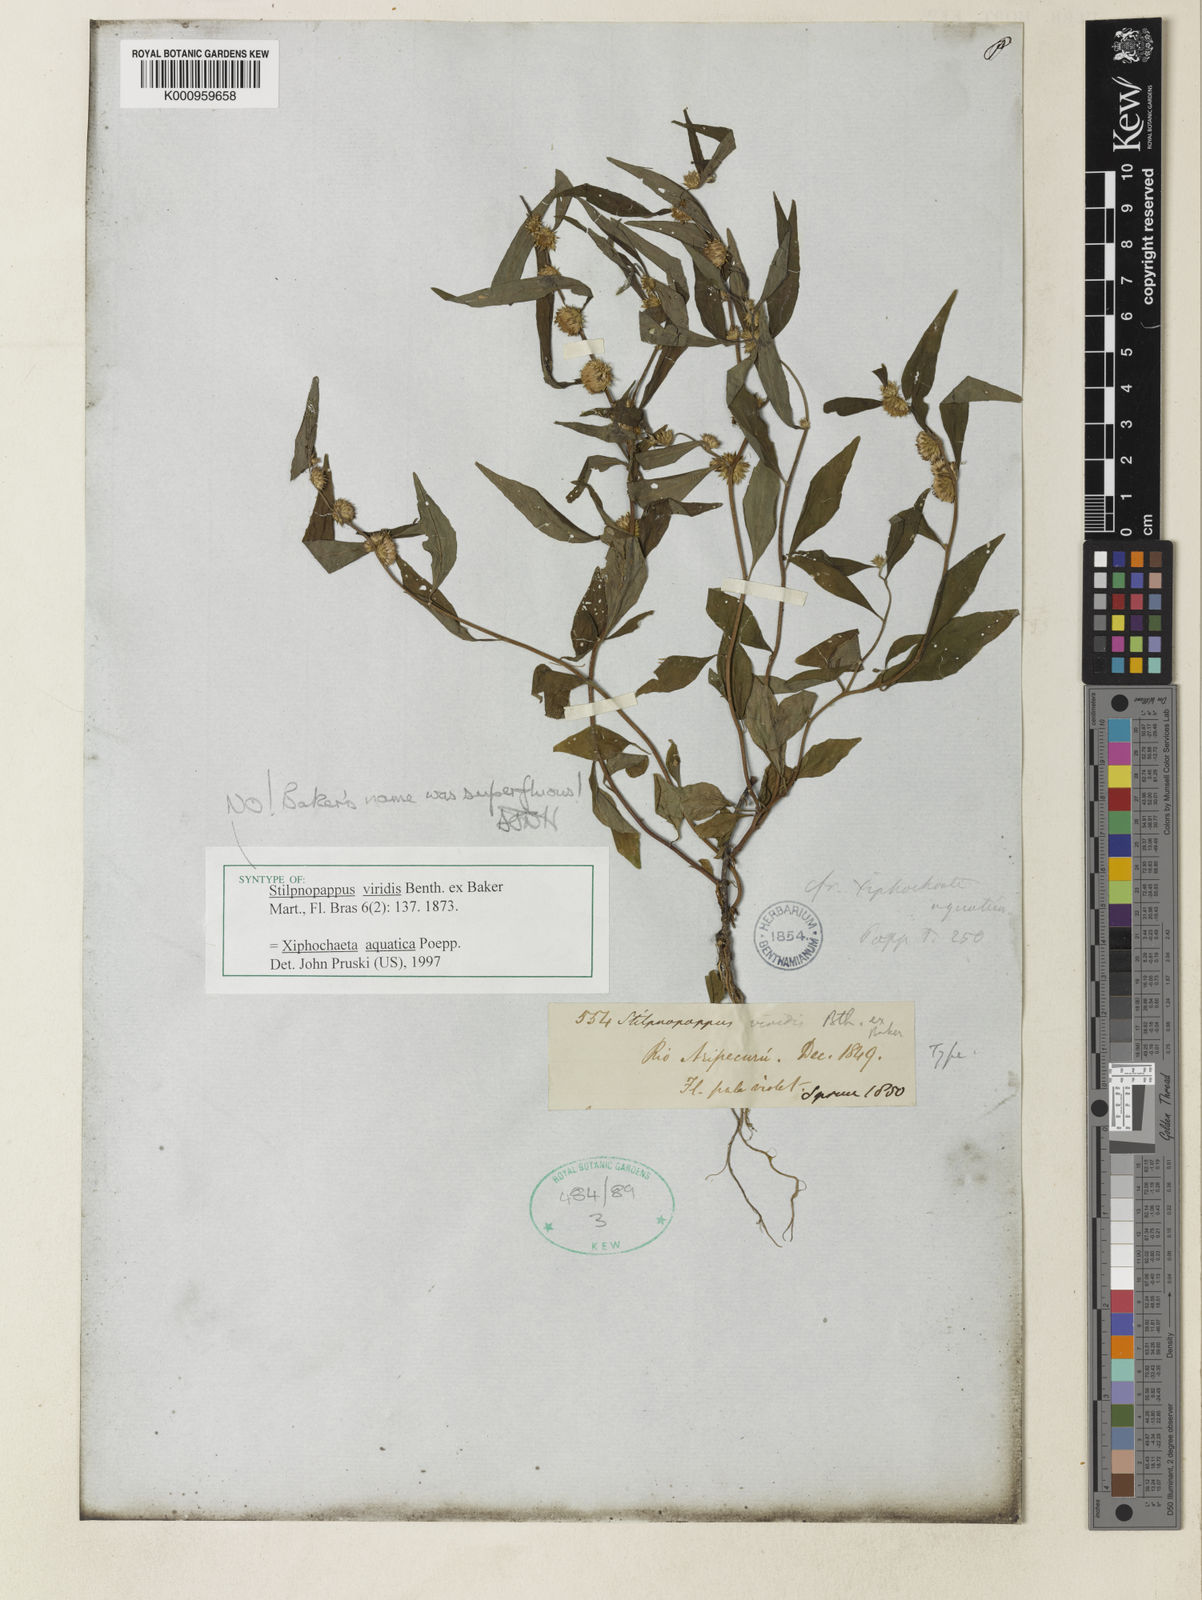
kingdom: Plantae
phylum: Tracheophyta
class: Magnoliopsida
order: Asterales
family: Asteraceae
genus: Xiphochaeta
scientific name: Xiphochaeta aquatica
